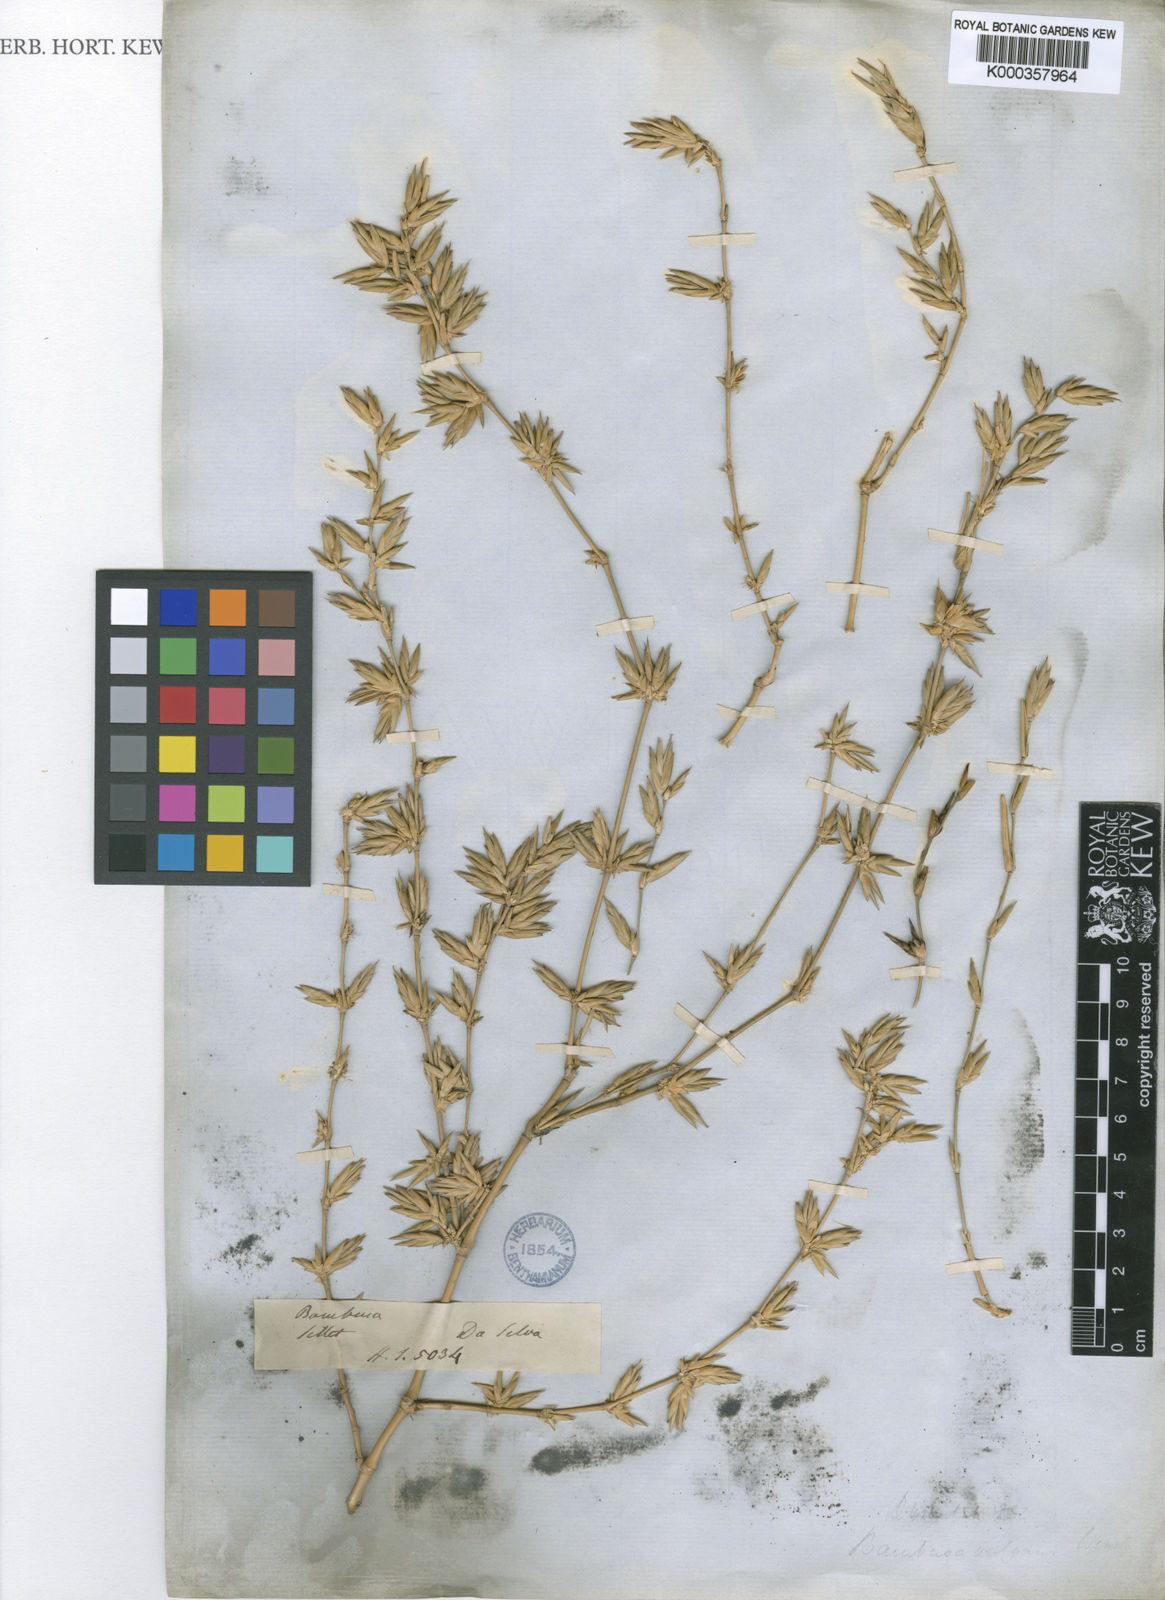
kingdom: Plantae
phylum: Tracheophyta
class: Liliopsida
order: Poales
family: Poaceae
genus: Bambusa
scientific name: Bambusa
